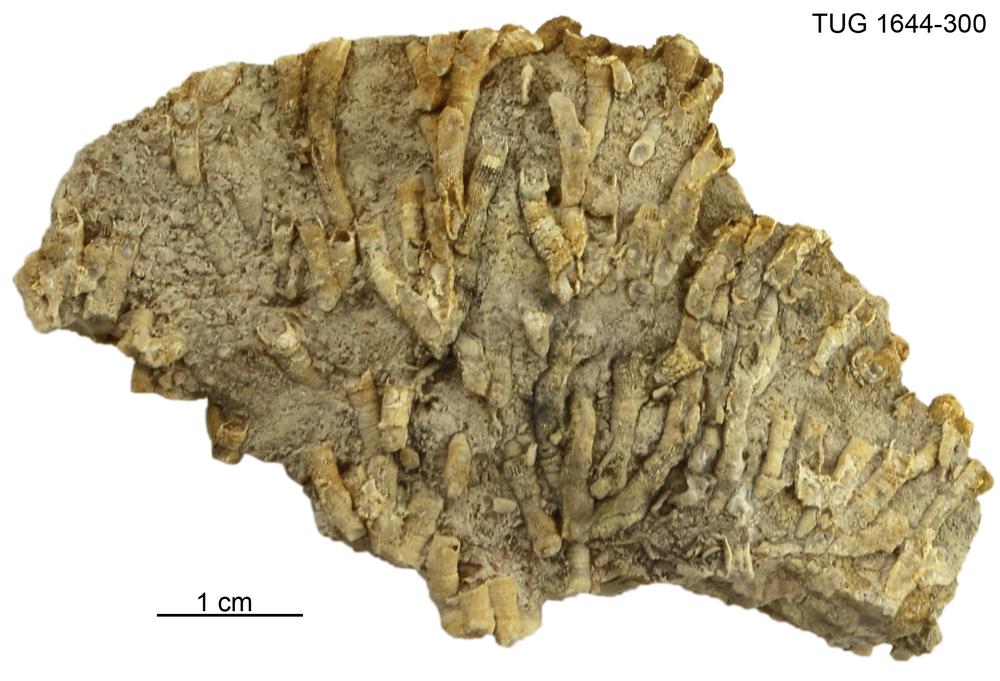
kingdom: Animalia
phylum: Cnidaria
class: Anthozoa
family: Auloporidae
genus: Eofletcheria
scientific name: Eofletcheria orvikui
